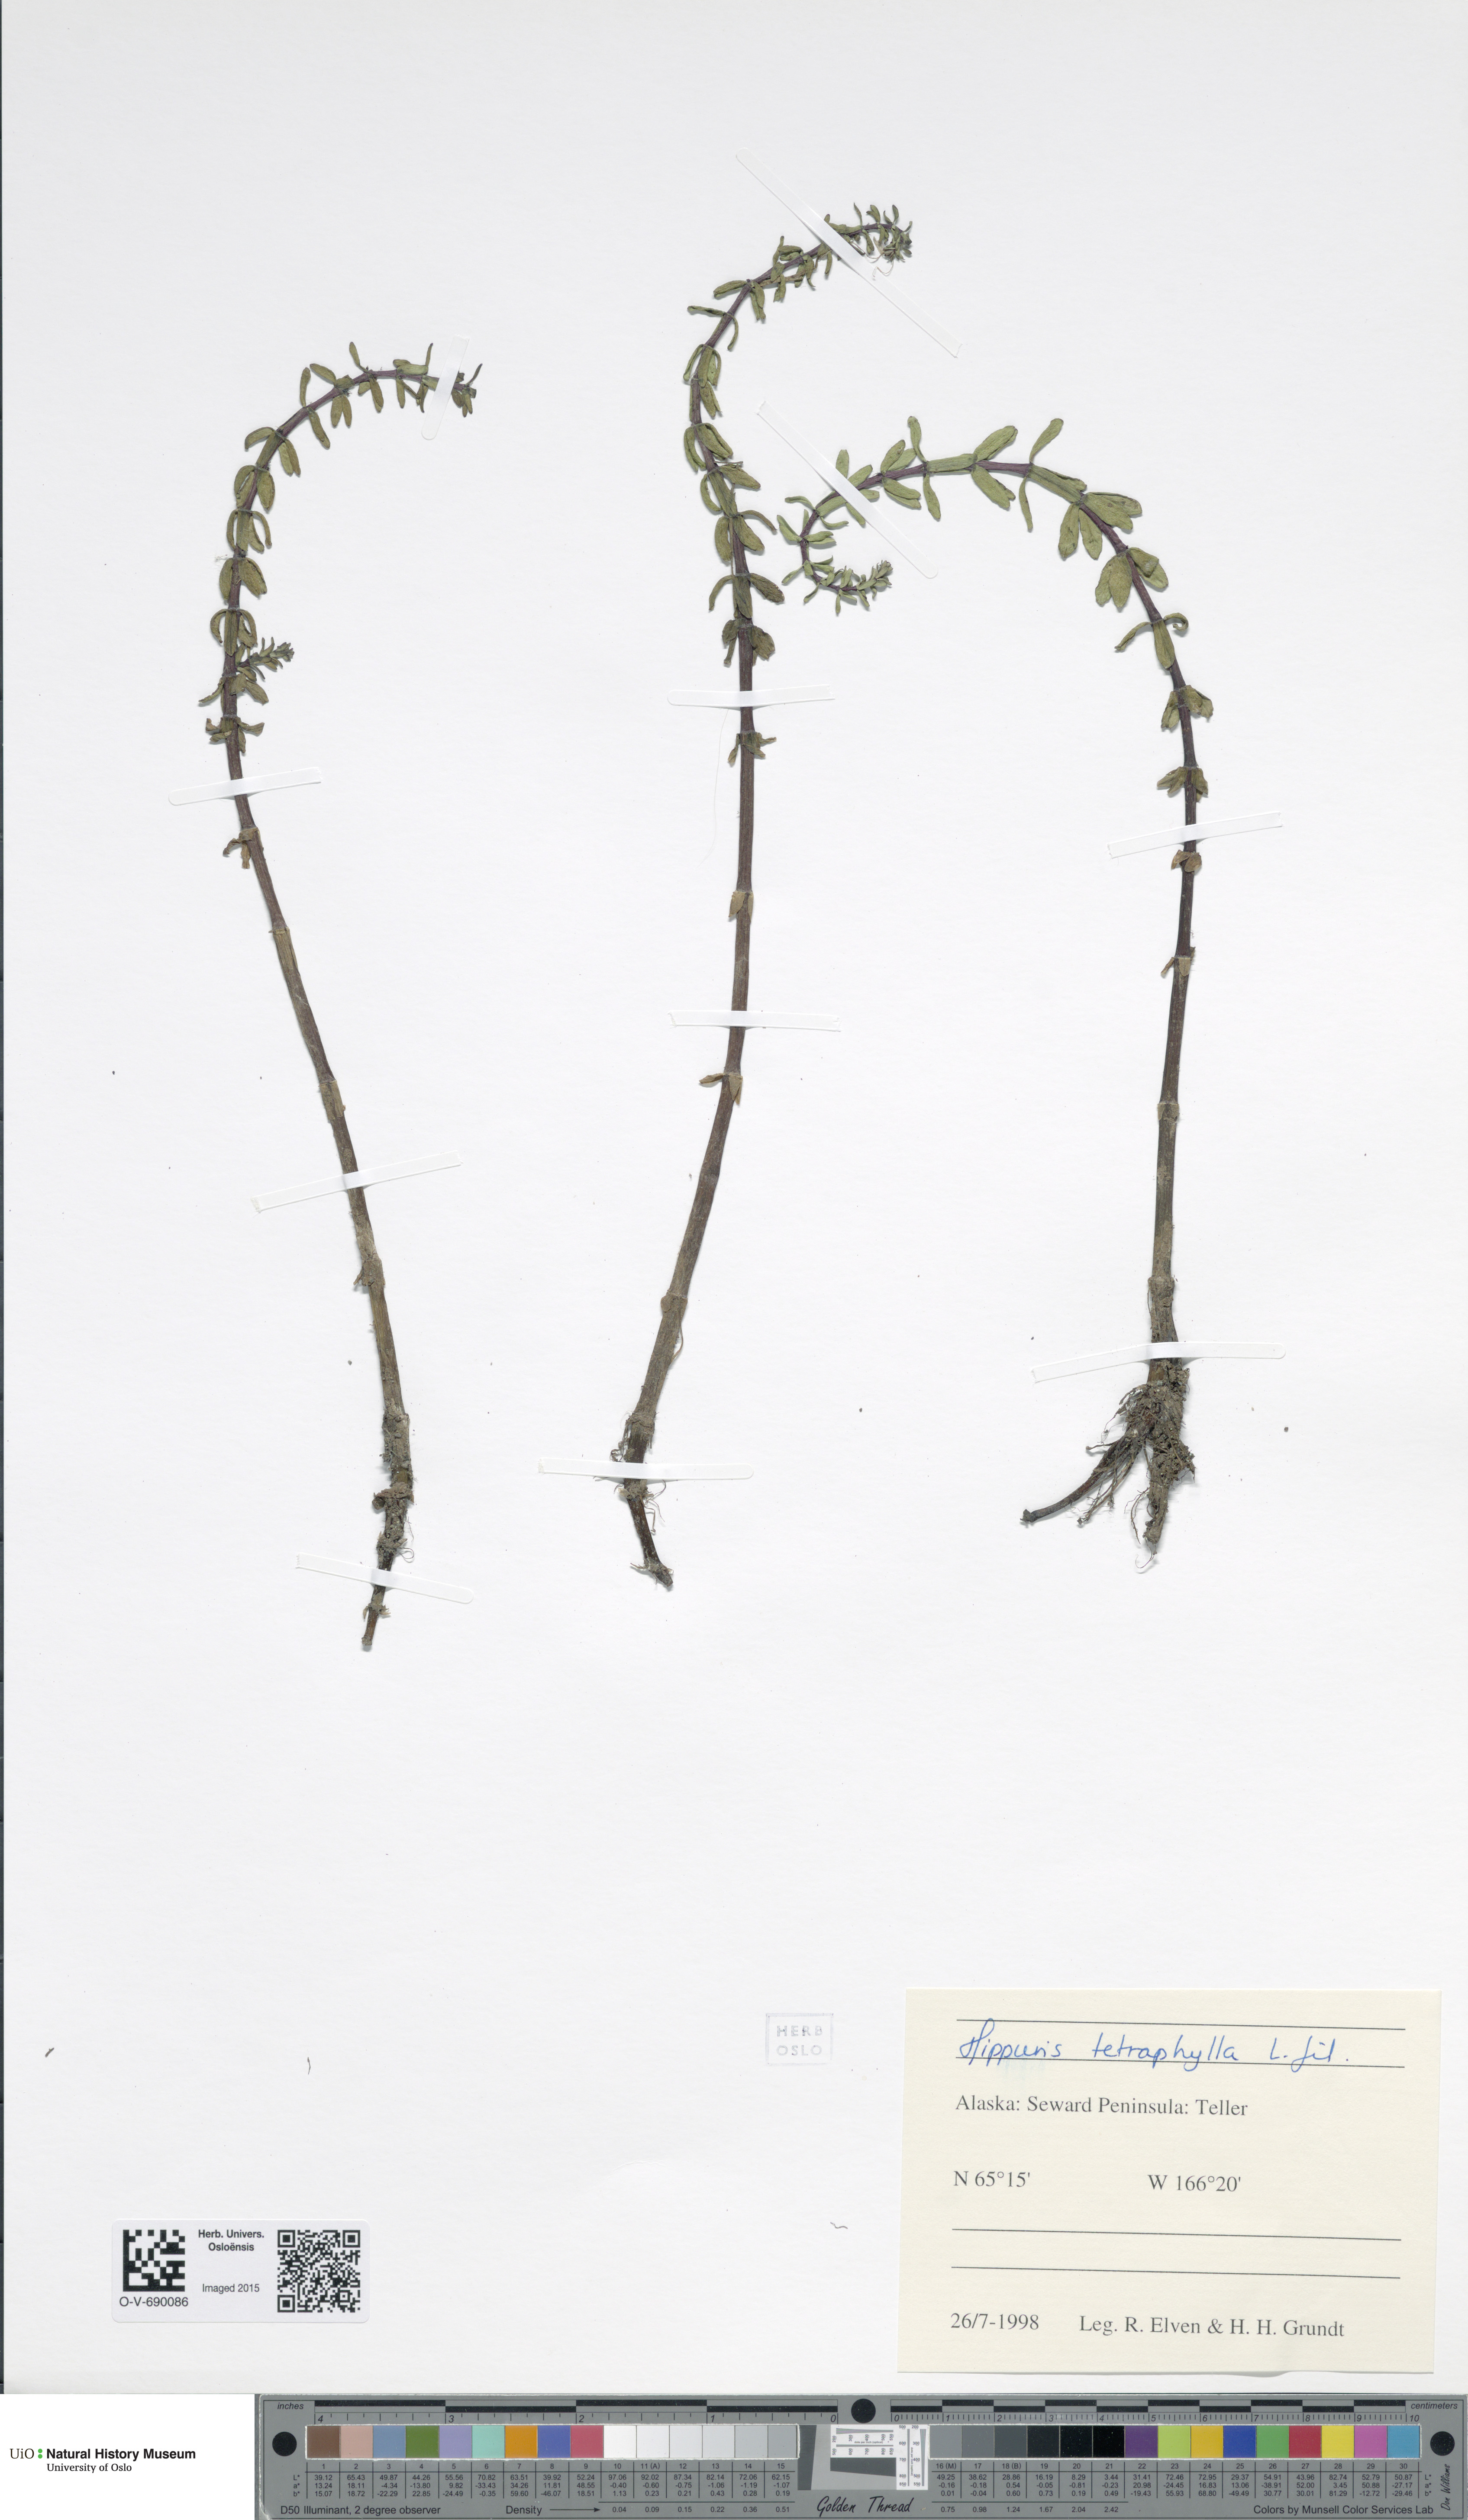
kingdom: Plantae
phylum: Tracheophyta
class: Magnoliopsida
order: Lamiales
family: Plantaginaceae
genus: Hippuris
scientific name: Hippuris tetraphylla
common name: Four-leaved mare's-tail
